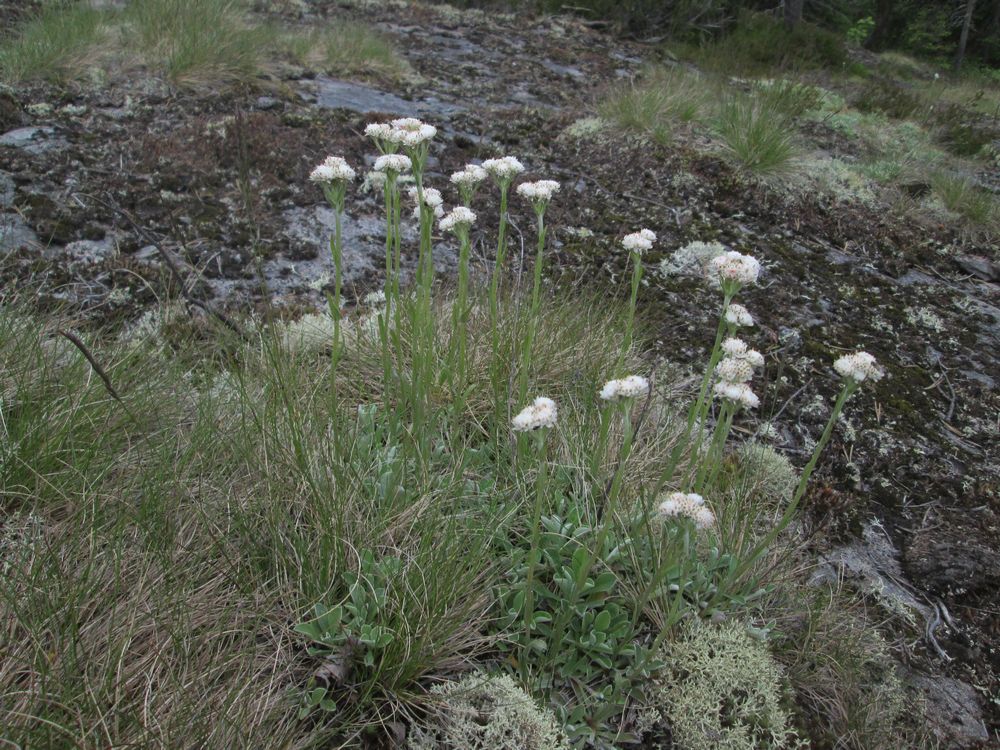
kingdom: Plantae
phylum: Tracheophyta
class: Magnoliopsida
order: Asterales
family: Asteraceae
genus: Antennaria
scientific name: Antennaria dioica
